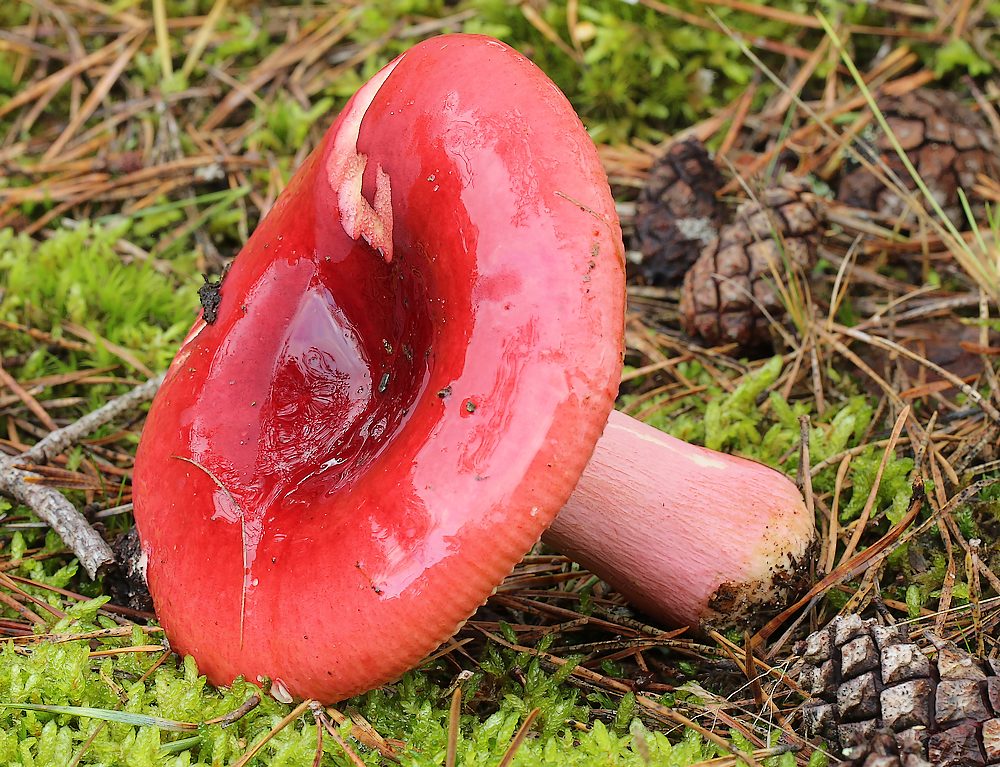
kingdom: Fungi
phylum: Basidiomycota
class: Agaricomycetes
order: Russulales
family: Russulaceae
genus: Russula
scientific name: Russula xerampelina
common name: hummer-skørhat
